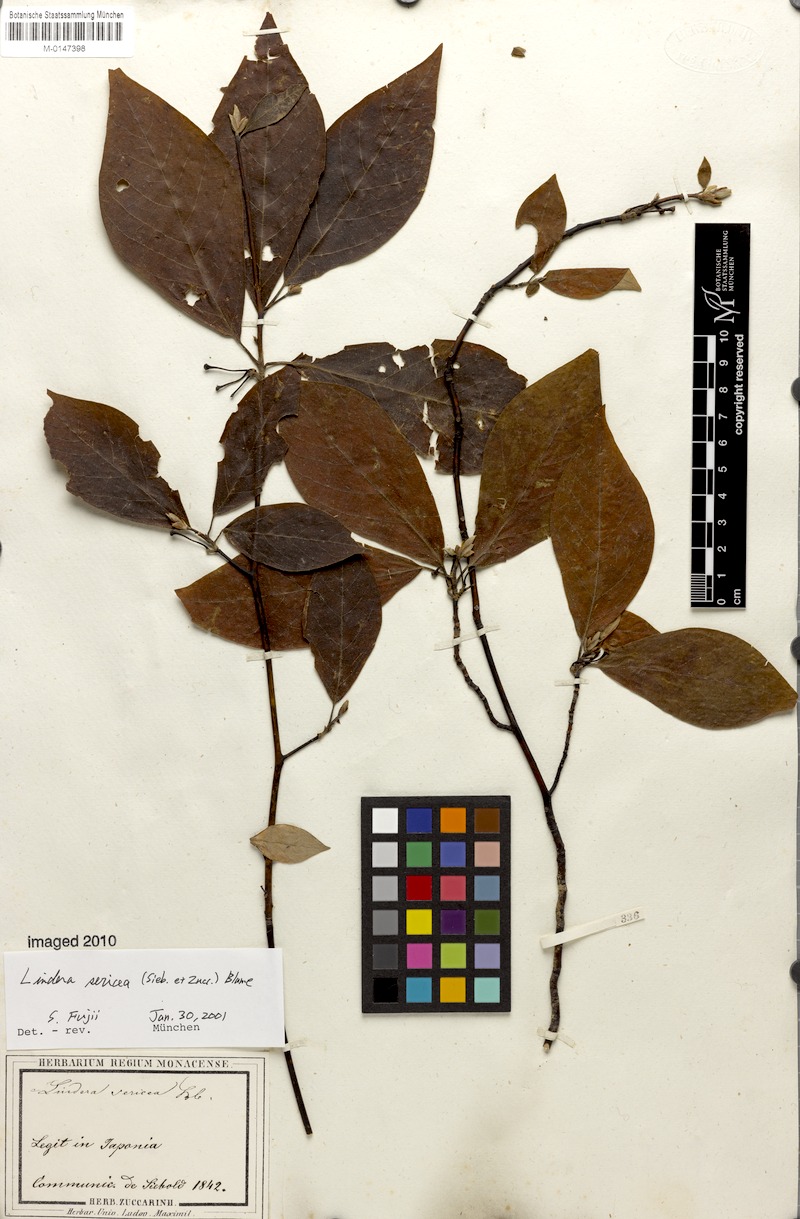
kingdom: Plantae
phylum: Tracheophyta
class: Magnoliopsida
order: Laurales
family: Lauraceae
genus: Lindera
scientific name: Lindera sericea
